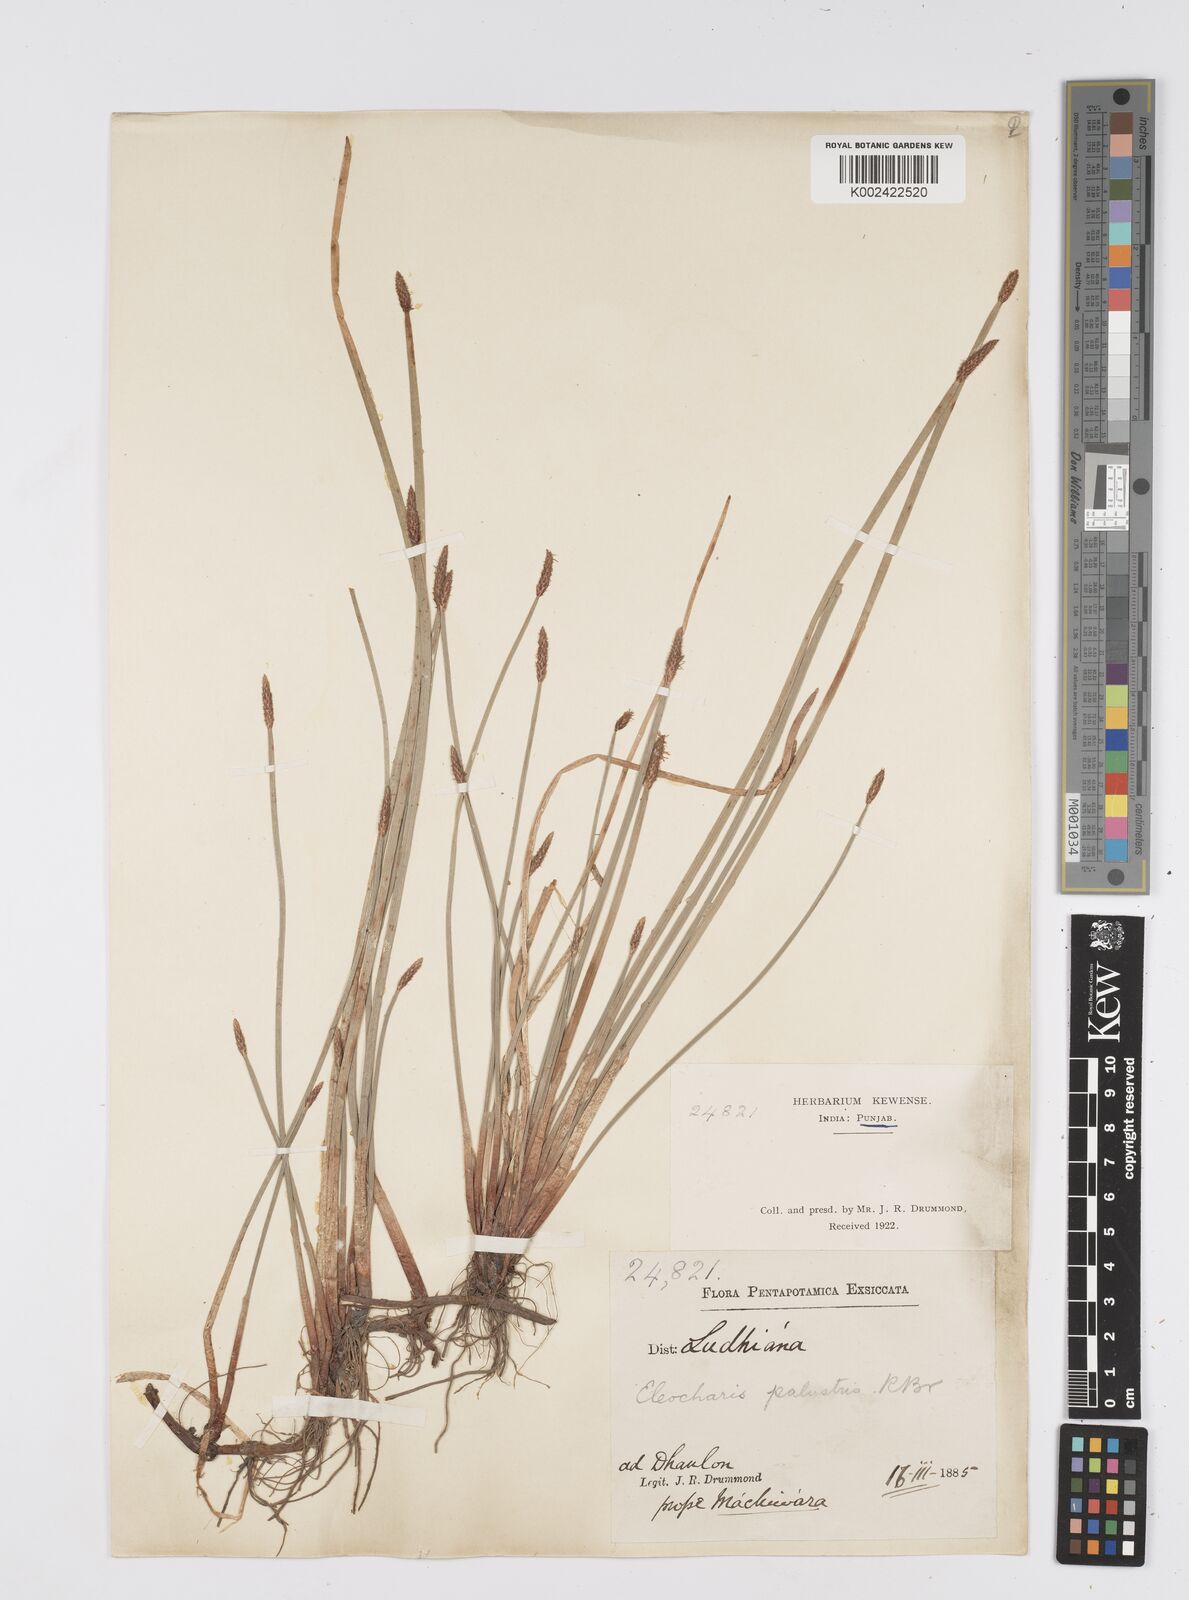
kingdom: Plantae
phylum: Tracheophyta
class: Liliopsida
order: Poales
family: Cyperaceae
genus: Eleocharis
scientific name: Eleocharis palustris
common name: Common spike-rush
